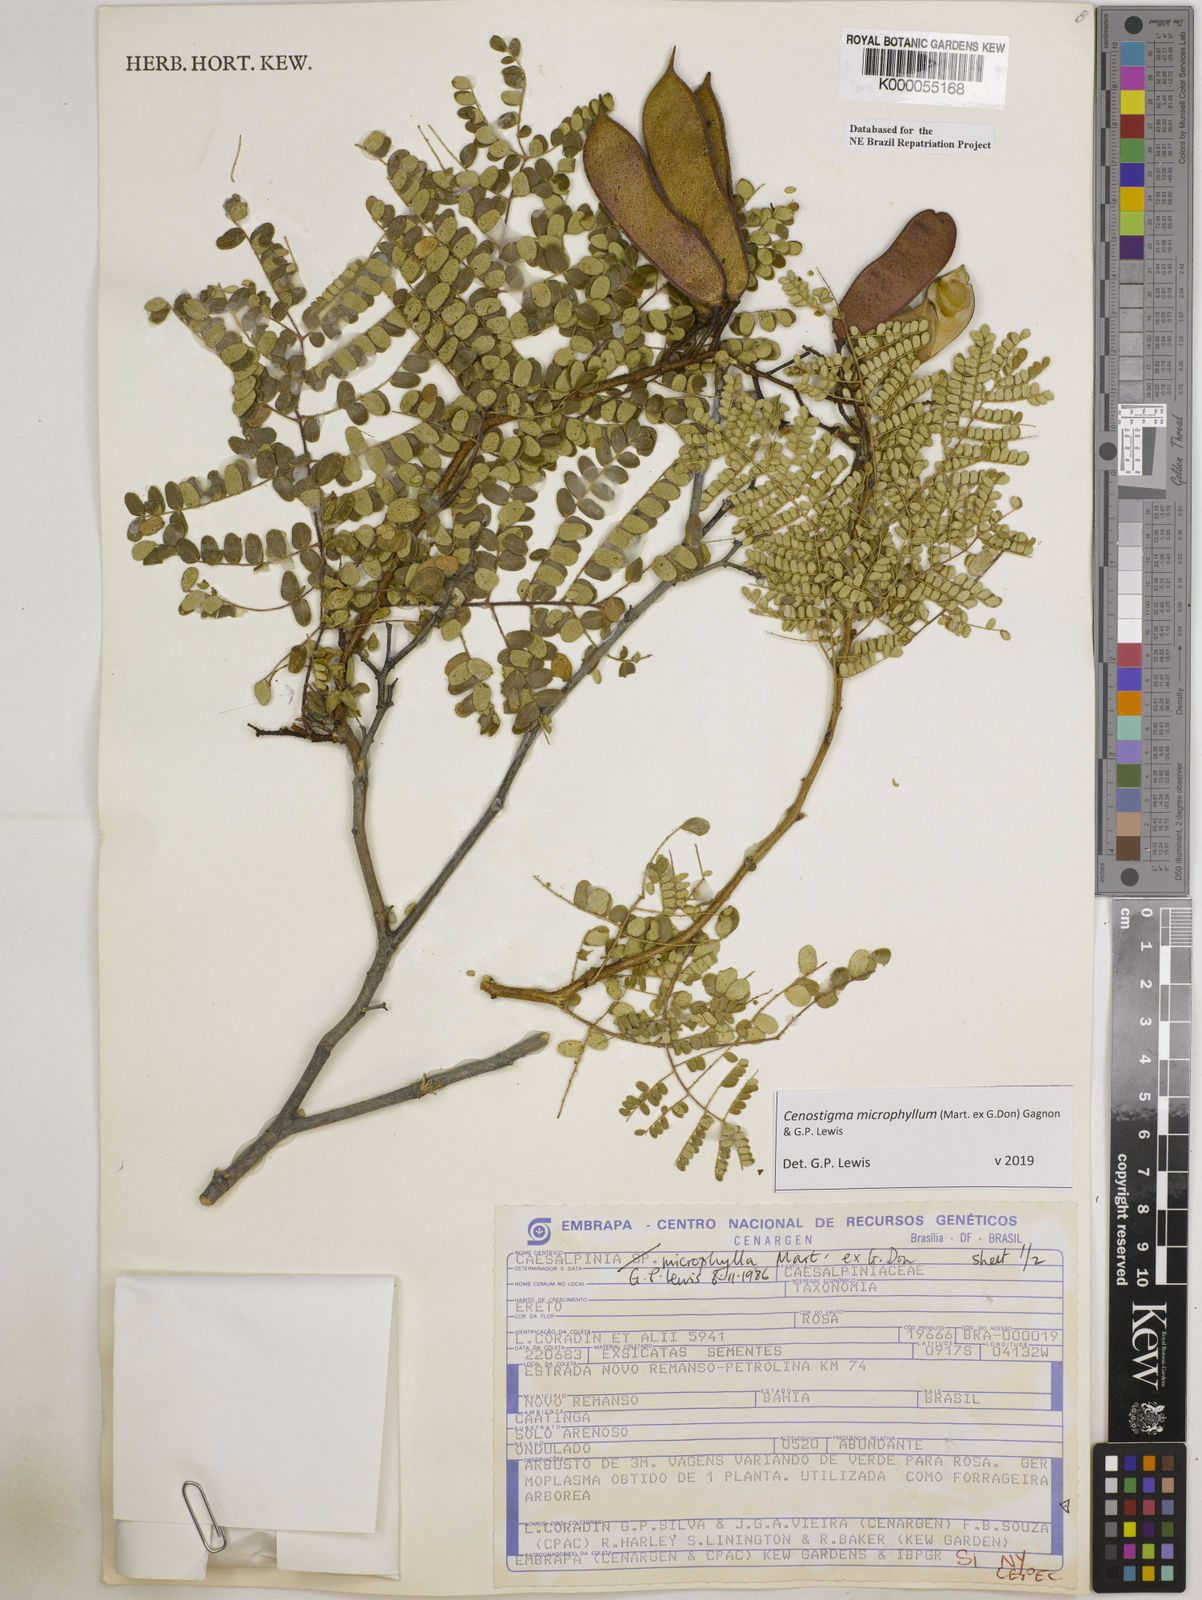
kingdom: Plantae
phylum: Tracheophyta
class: Magnoliopsida
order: Fabales
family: Fabaceae
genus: Cenostigma
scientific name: Cenostigma microphyllum
